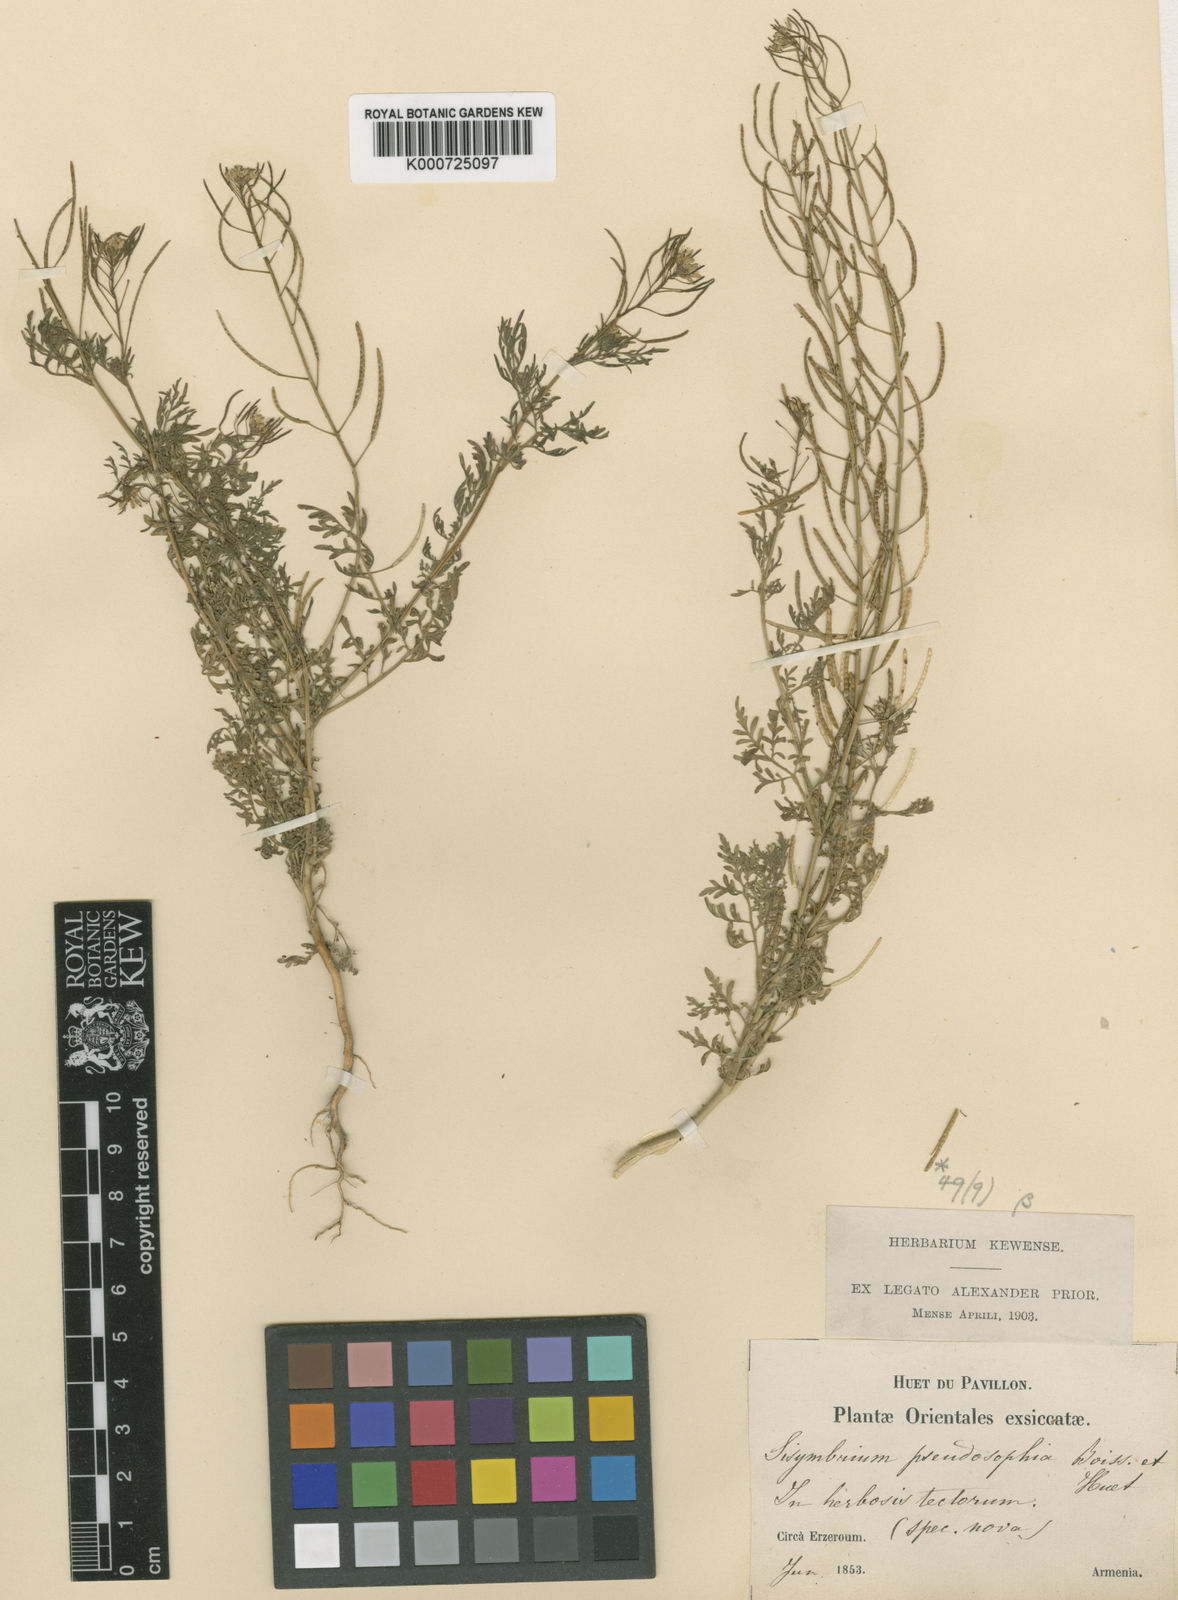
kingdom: Plantae
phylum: Tracheophyta
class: Magnoliopsida
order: Brassicales
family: Brassicaceae
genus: Descurainia
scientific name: Descurainia sophia
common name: Flixweed
